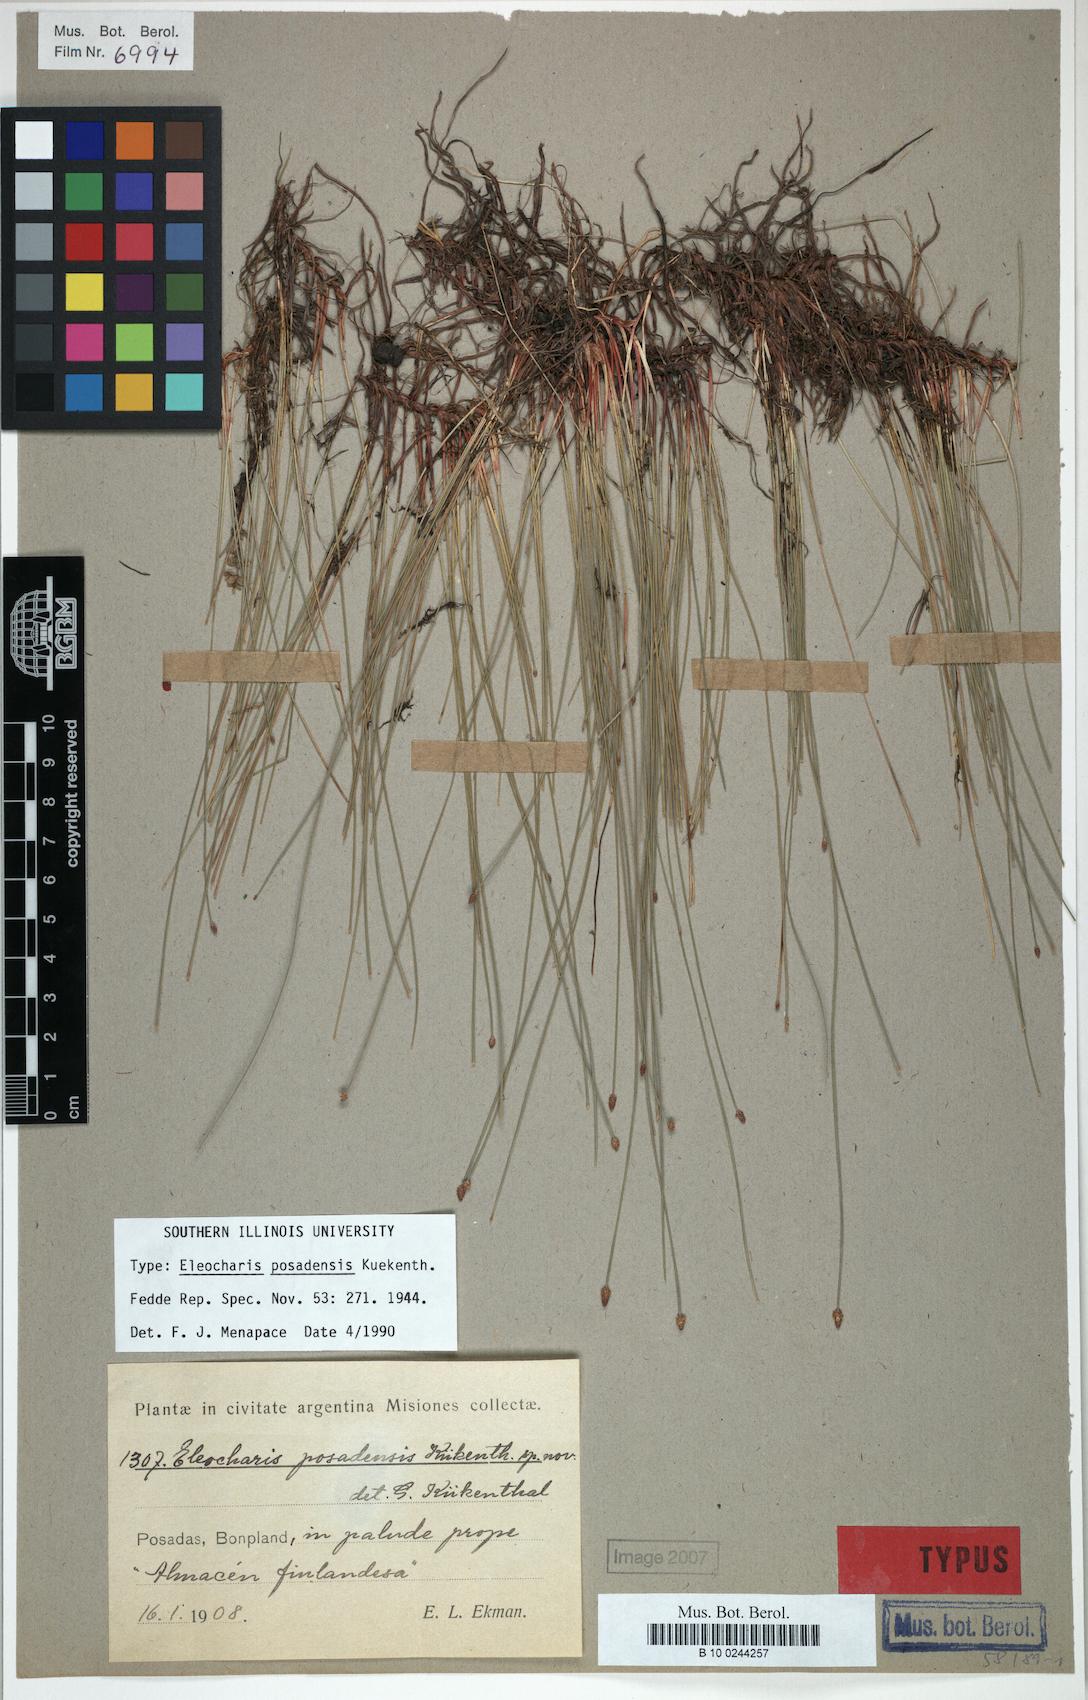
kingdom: Plantae
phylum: Tracheophyta
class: Liliopsida
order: Poales
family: Cyperaceae
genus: Eleocharis
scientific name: Eleocharis contracta
